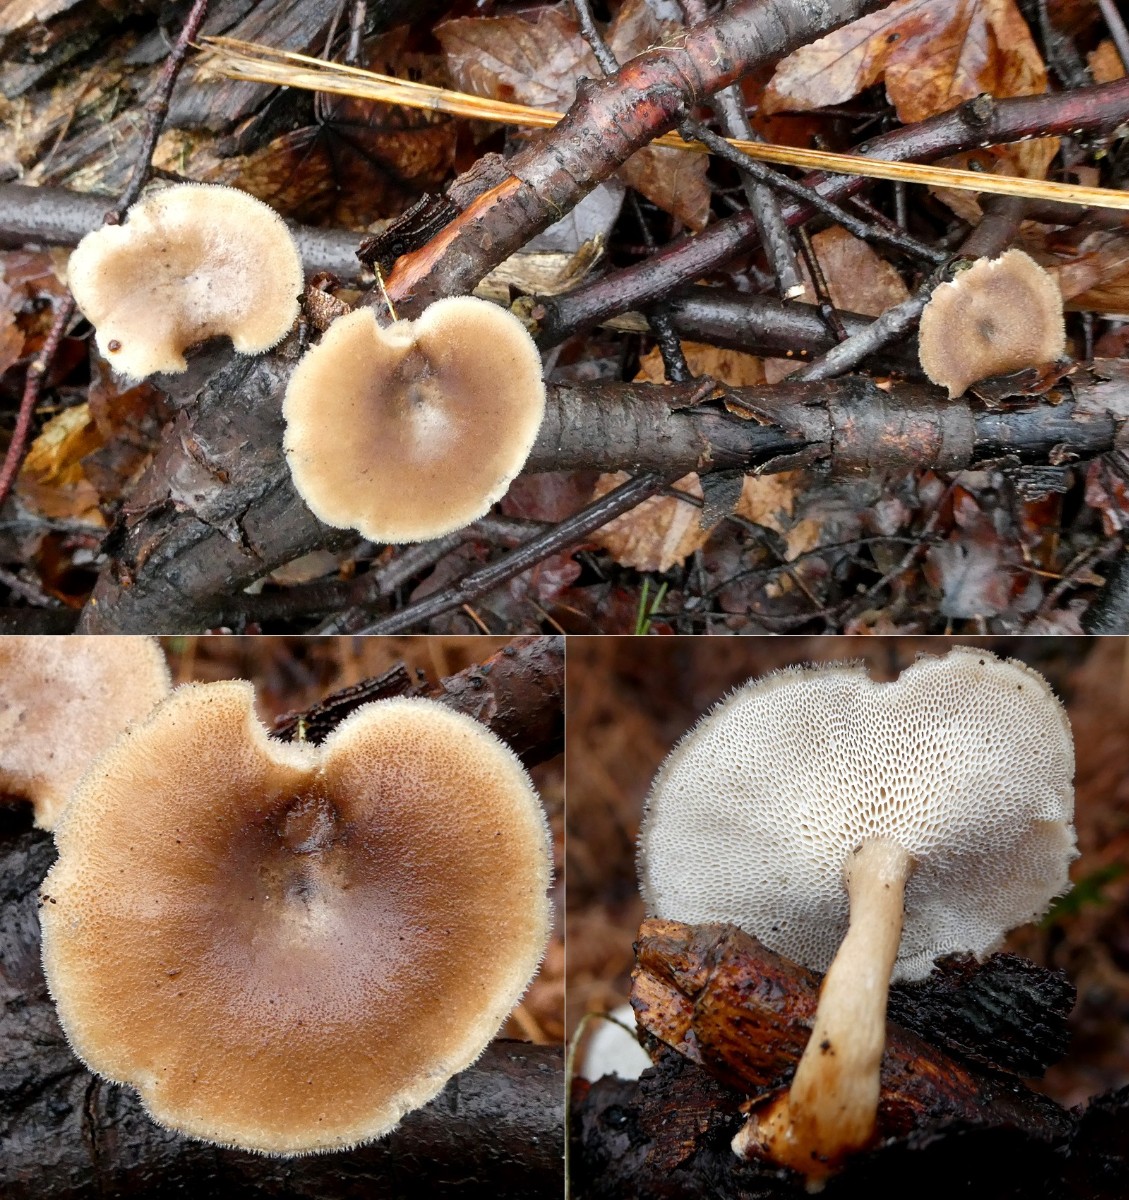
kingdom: Fungi
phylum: Basidiomycota
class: Agaricomycetes
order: Polyporales
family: Polyporaceae
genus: Lentinus
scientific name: Lentinus brumalis
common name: vinter-stilkporesvamp
